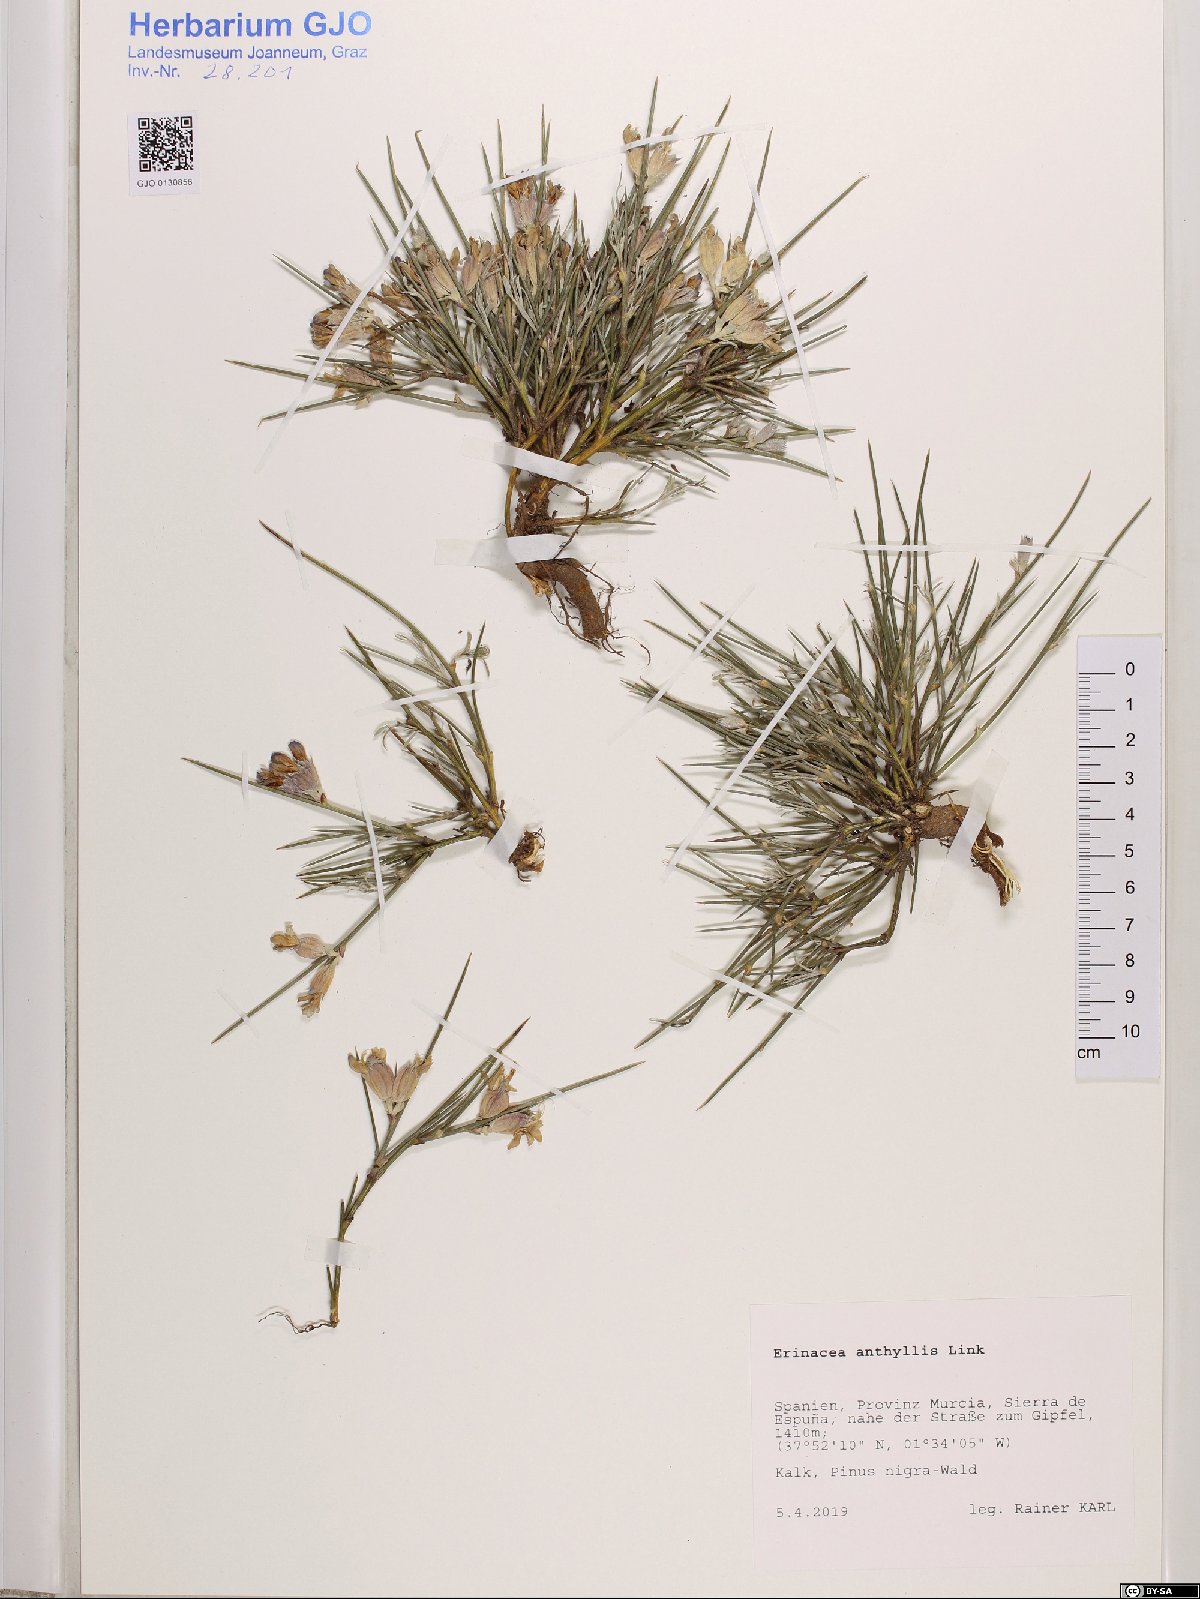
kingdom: Plantae
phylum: Tracheophyta
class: Magnoliopsida
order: Fabales
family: Fabaceae
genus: Erinacea
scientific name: Erinacea anthyllis
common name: Hedgehog-broom
